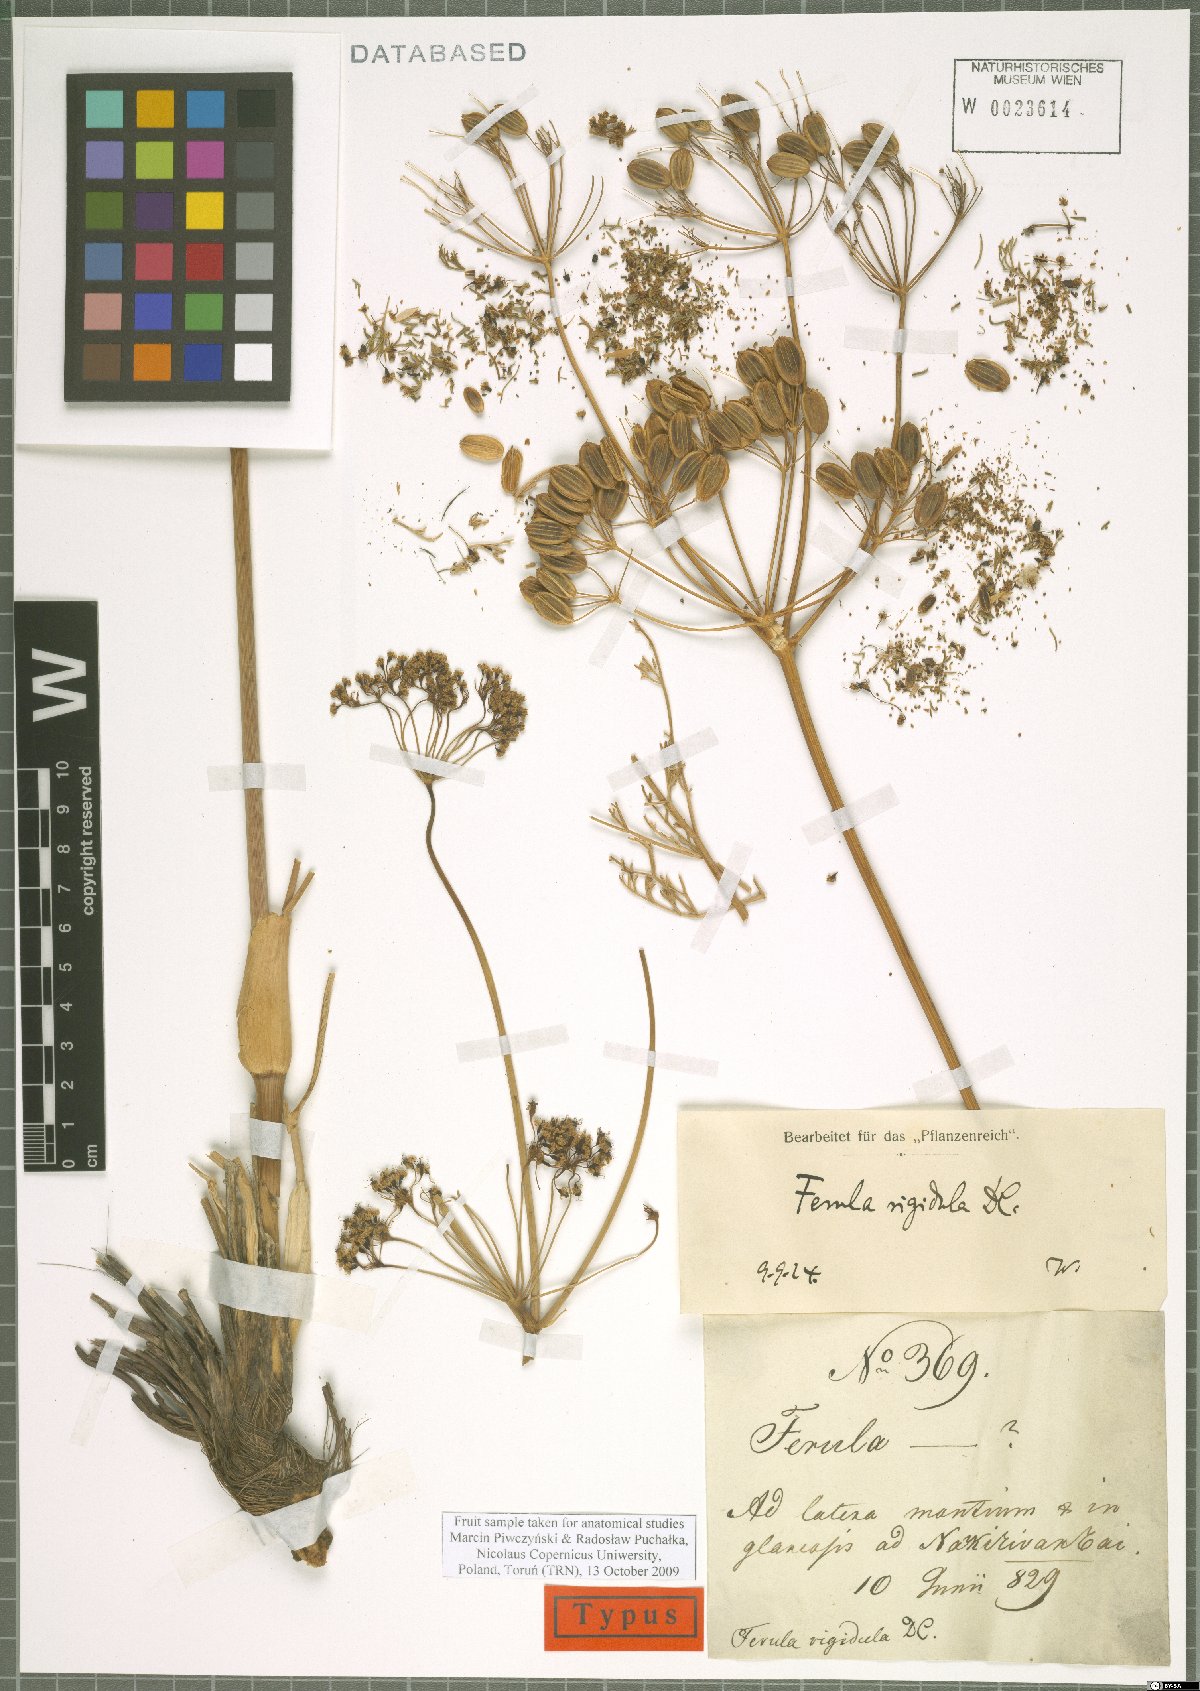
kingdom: Plantae
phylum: Tracheophyta
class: Magnoliopsida
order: Apiales
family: Apiaceae
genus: Ferula
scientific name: Ferula rigidula
